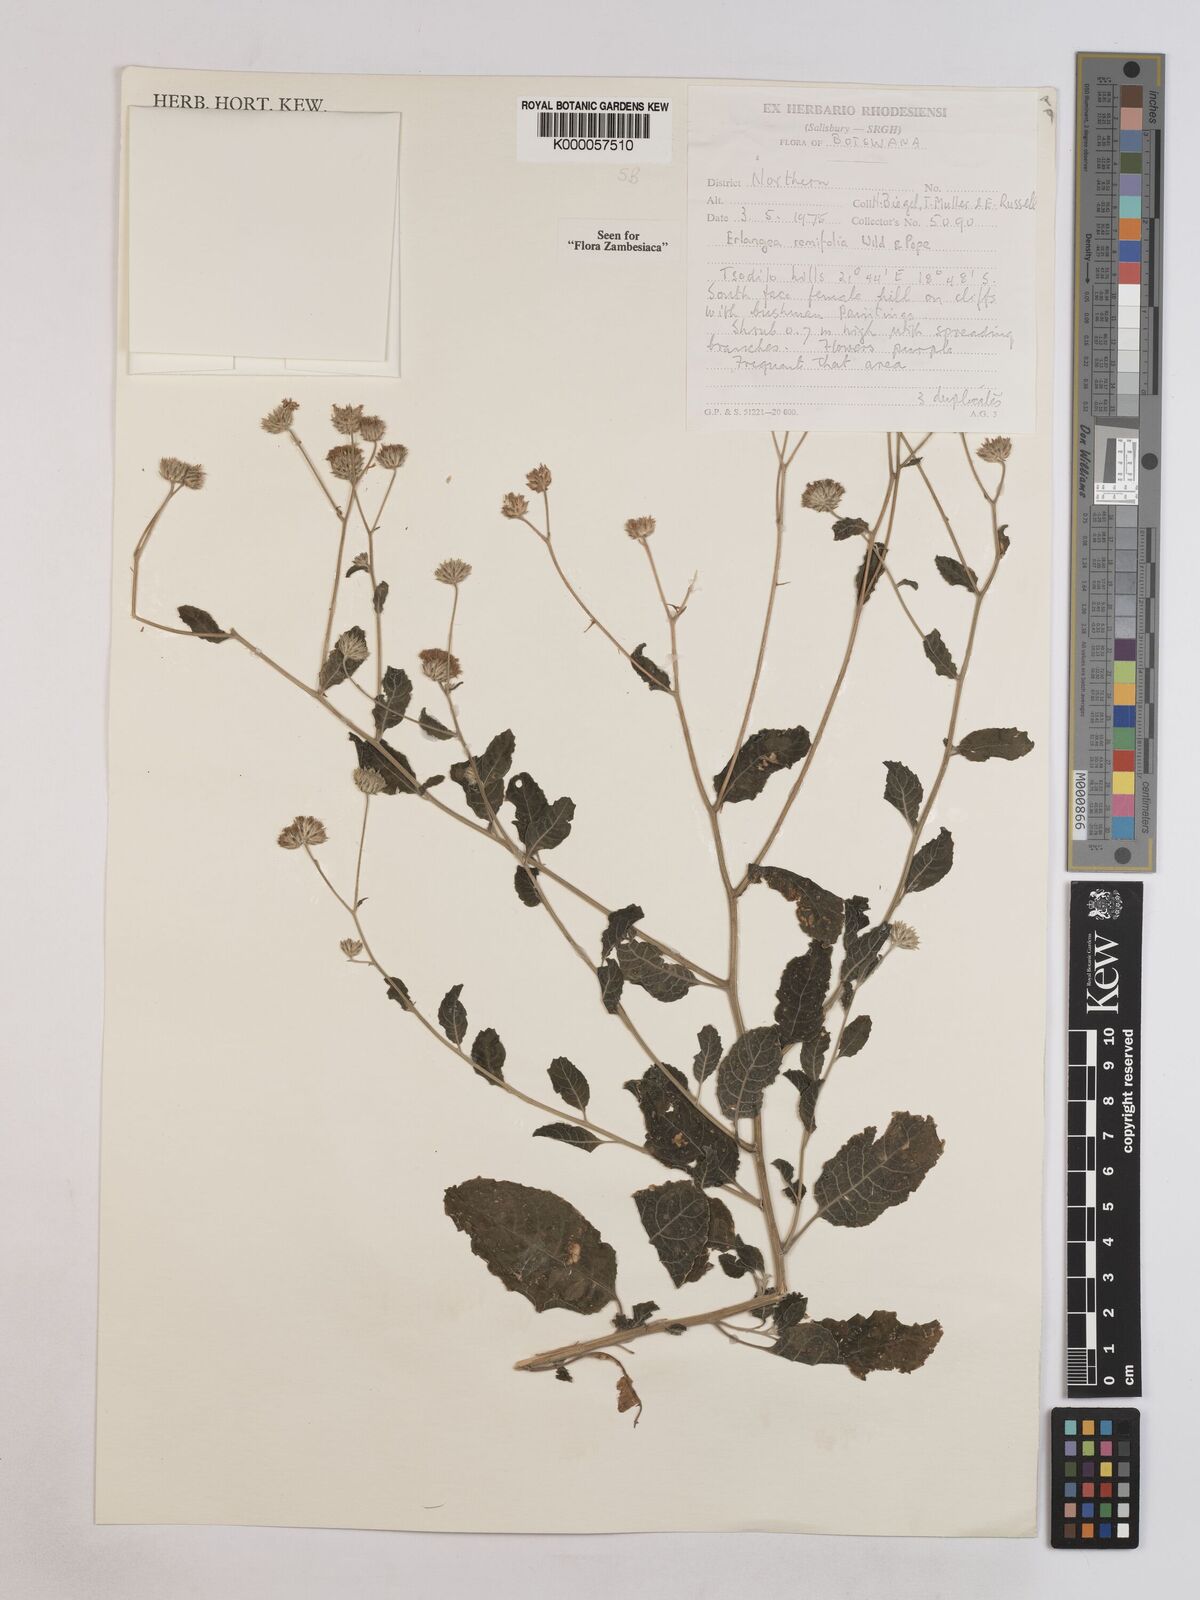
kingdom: Plantae
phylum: Tracheophyta
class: Magnoliopsida
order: Asterales
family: Asteraceae
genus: Erlangea
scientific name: Erlangea remifolia
